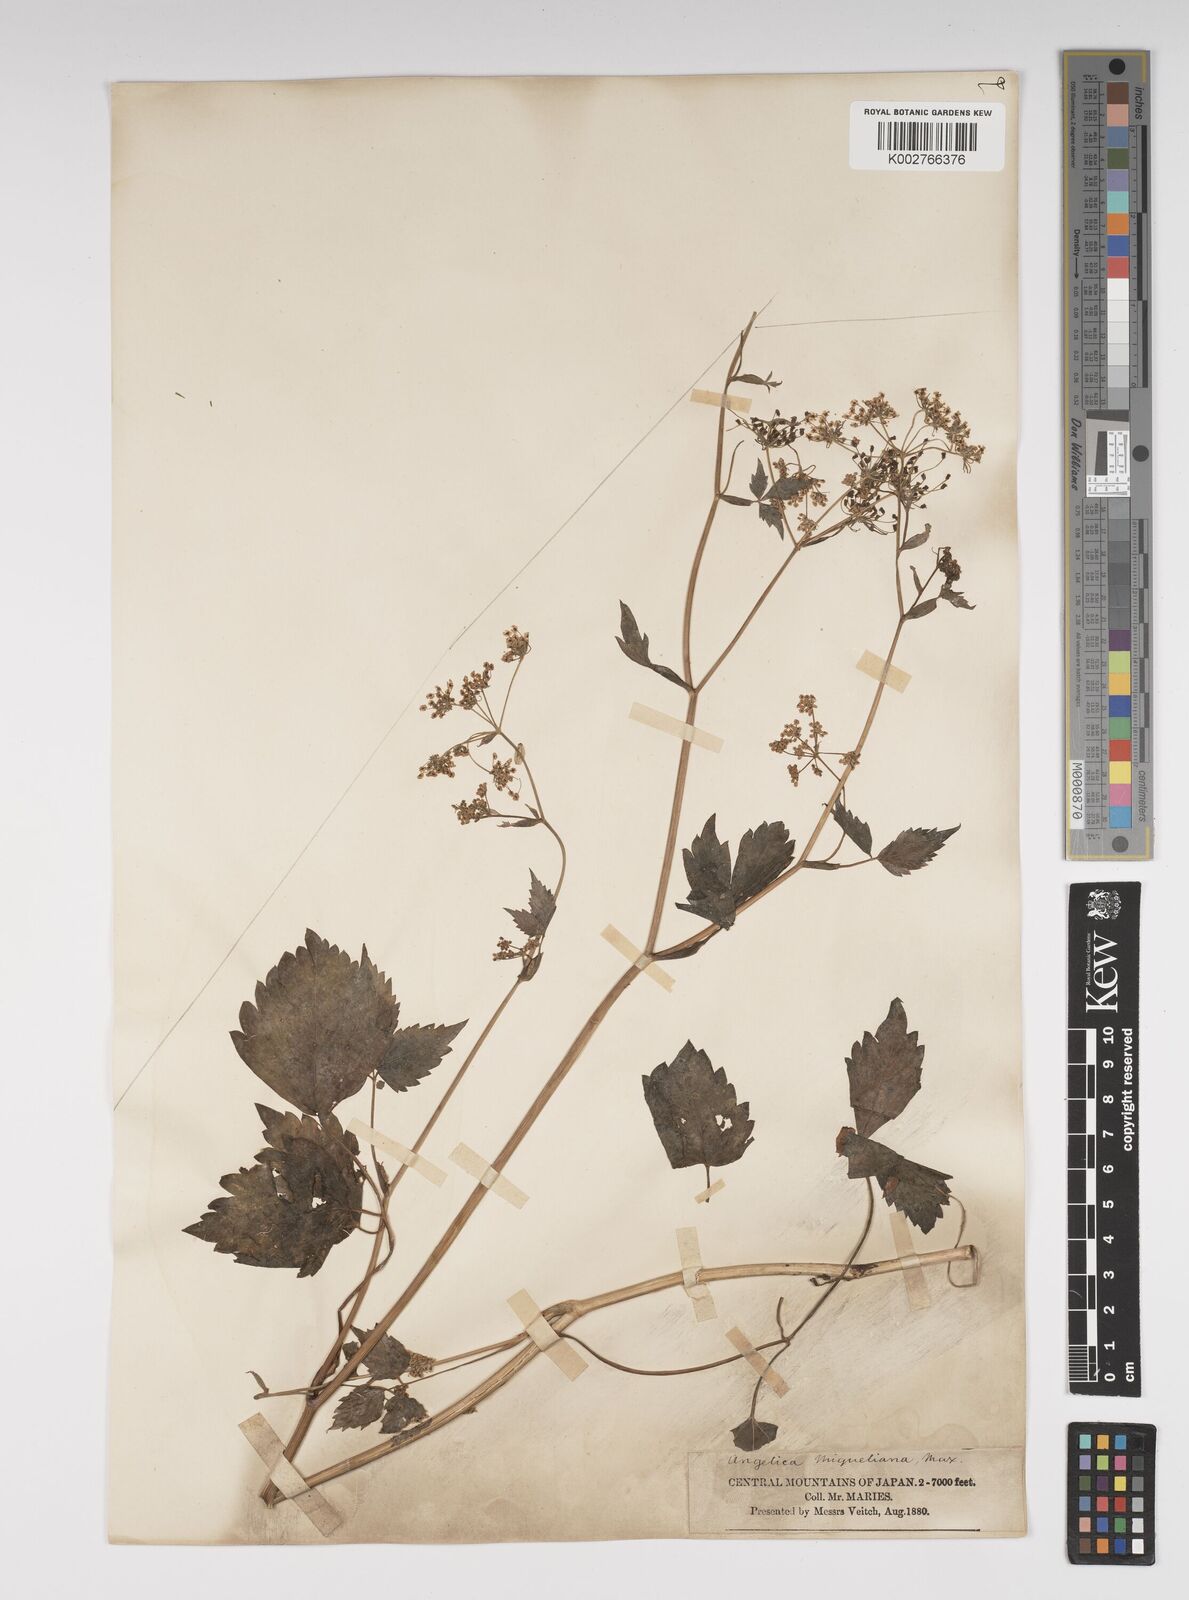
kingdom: Plantae
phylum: Tracheophyta
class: Magnoliopsida
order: Apiales
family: Apiaceae
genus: Ostericum
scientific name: Ostericum sieboldii
